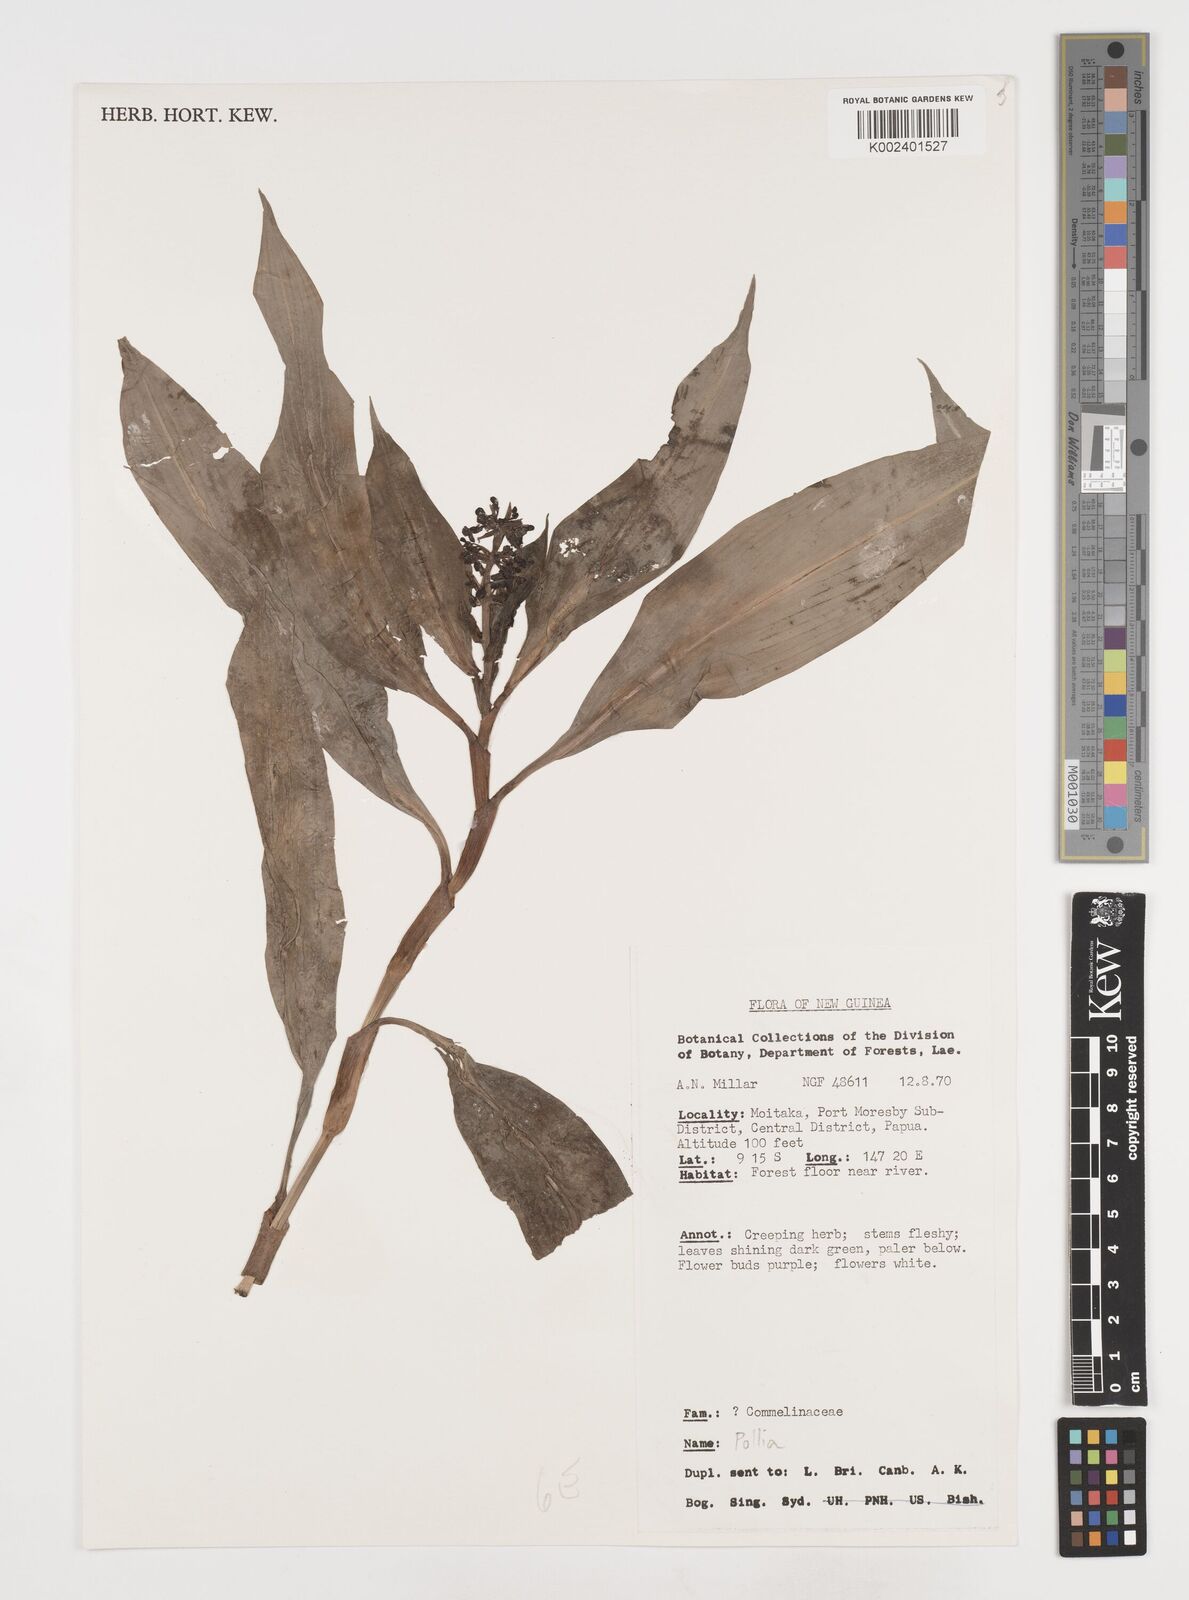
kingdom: Plantae
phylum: Tracheophyta
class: Liliopsida
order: Commelinales
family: Commelinaceae
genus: Pollia
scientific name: Pollia
